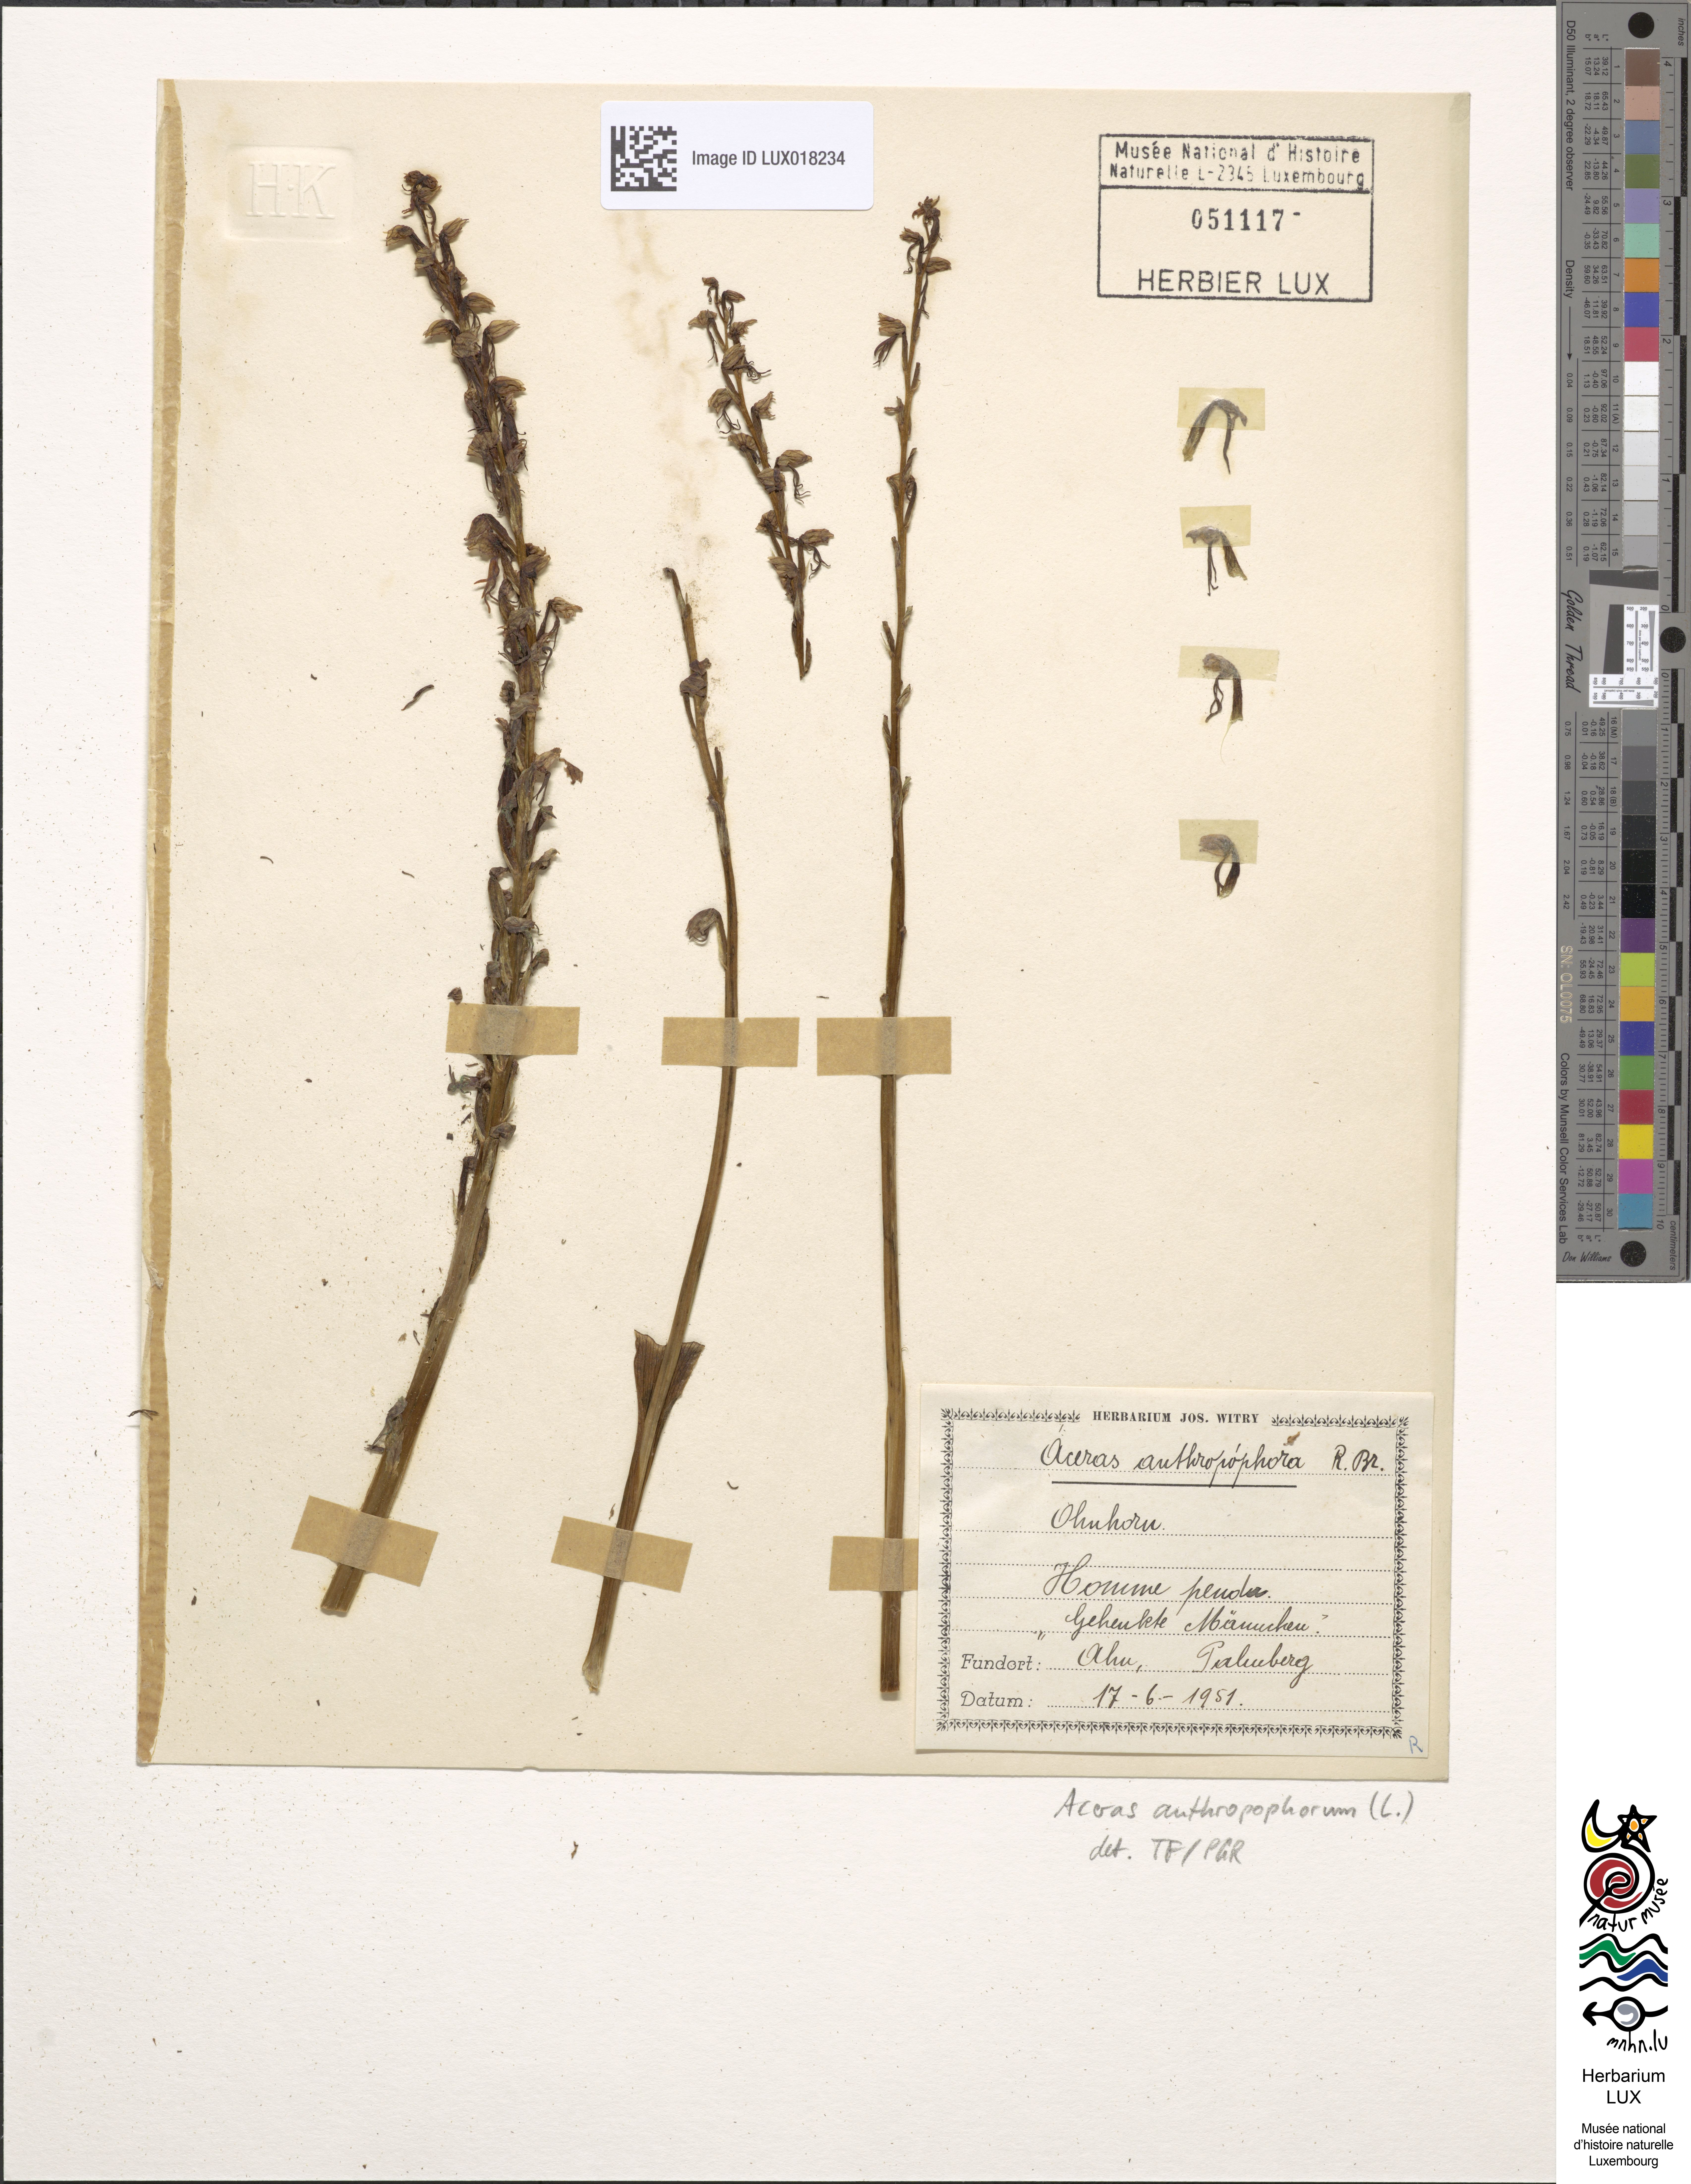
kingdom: Plantae
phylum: Tracheophyta
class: Liliopsida
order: Asparagales
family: Orchidaceae
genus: Orchis
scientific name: Orchis anthropophora
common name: Man orchid
